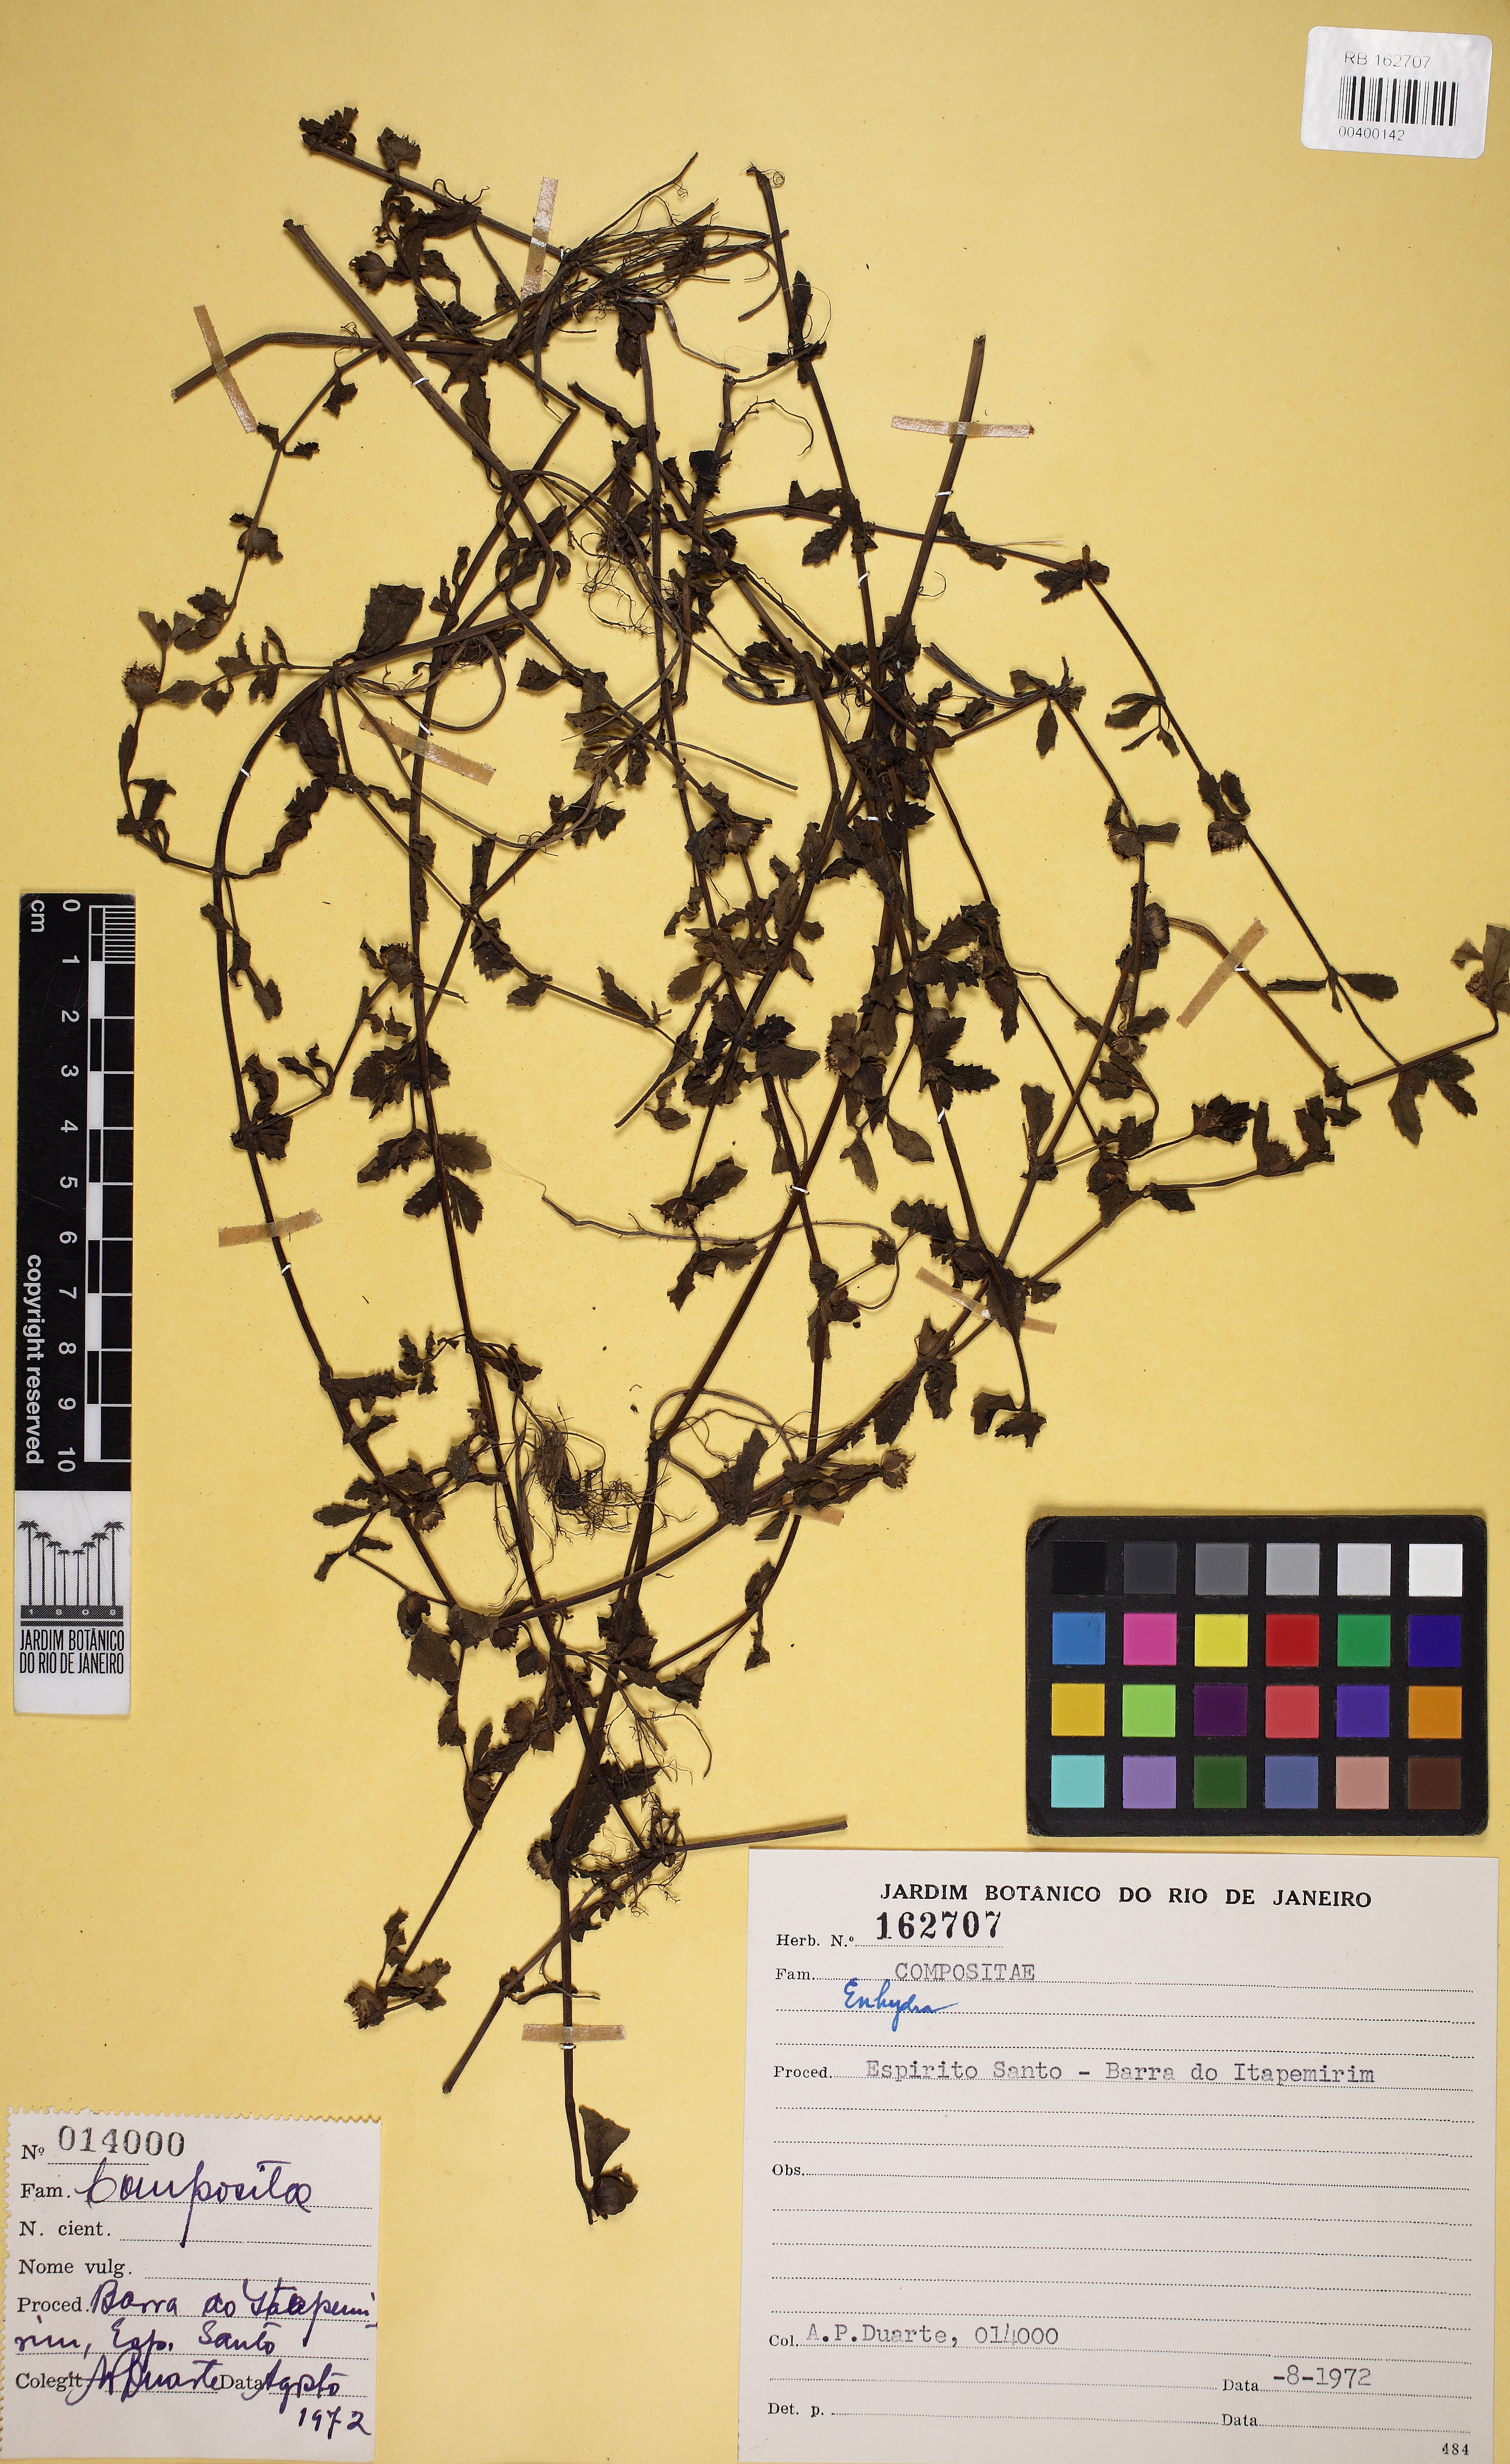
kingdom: Plantae
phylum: Tracheophyta
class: Magnoliopsida
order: Asterales
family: Asteraceae
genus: Enydra
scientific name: Enydra
